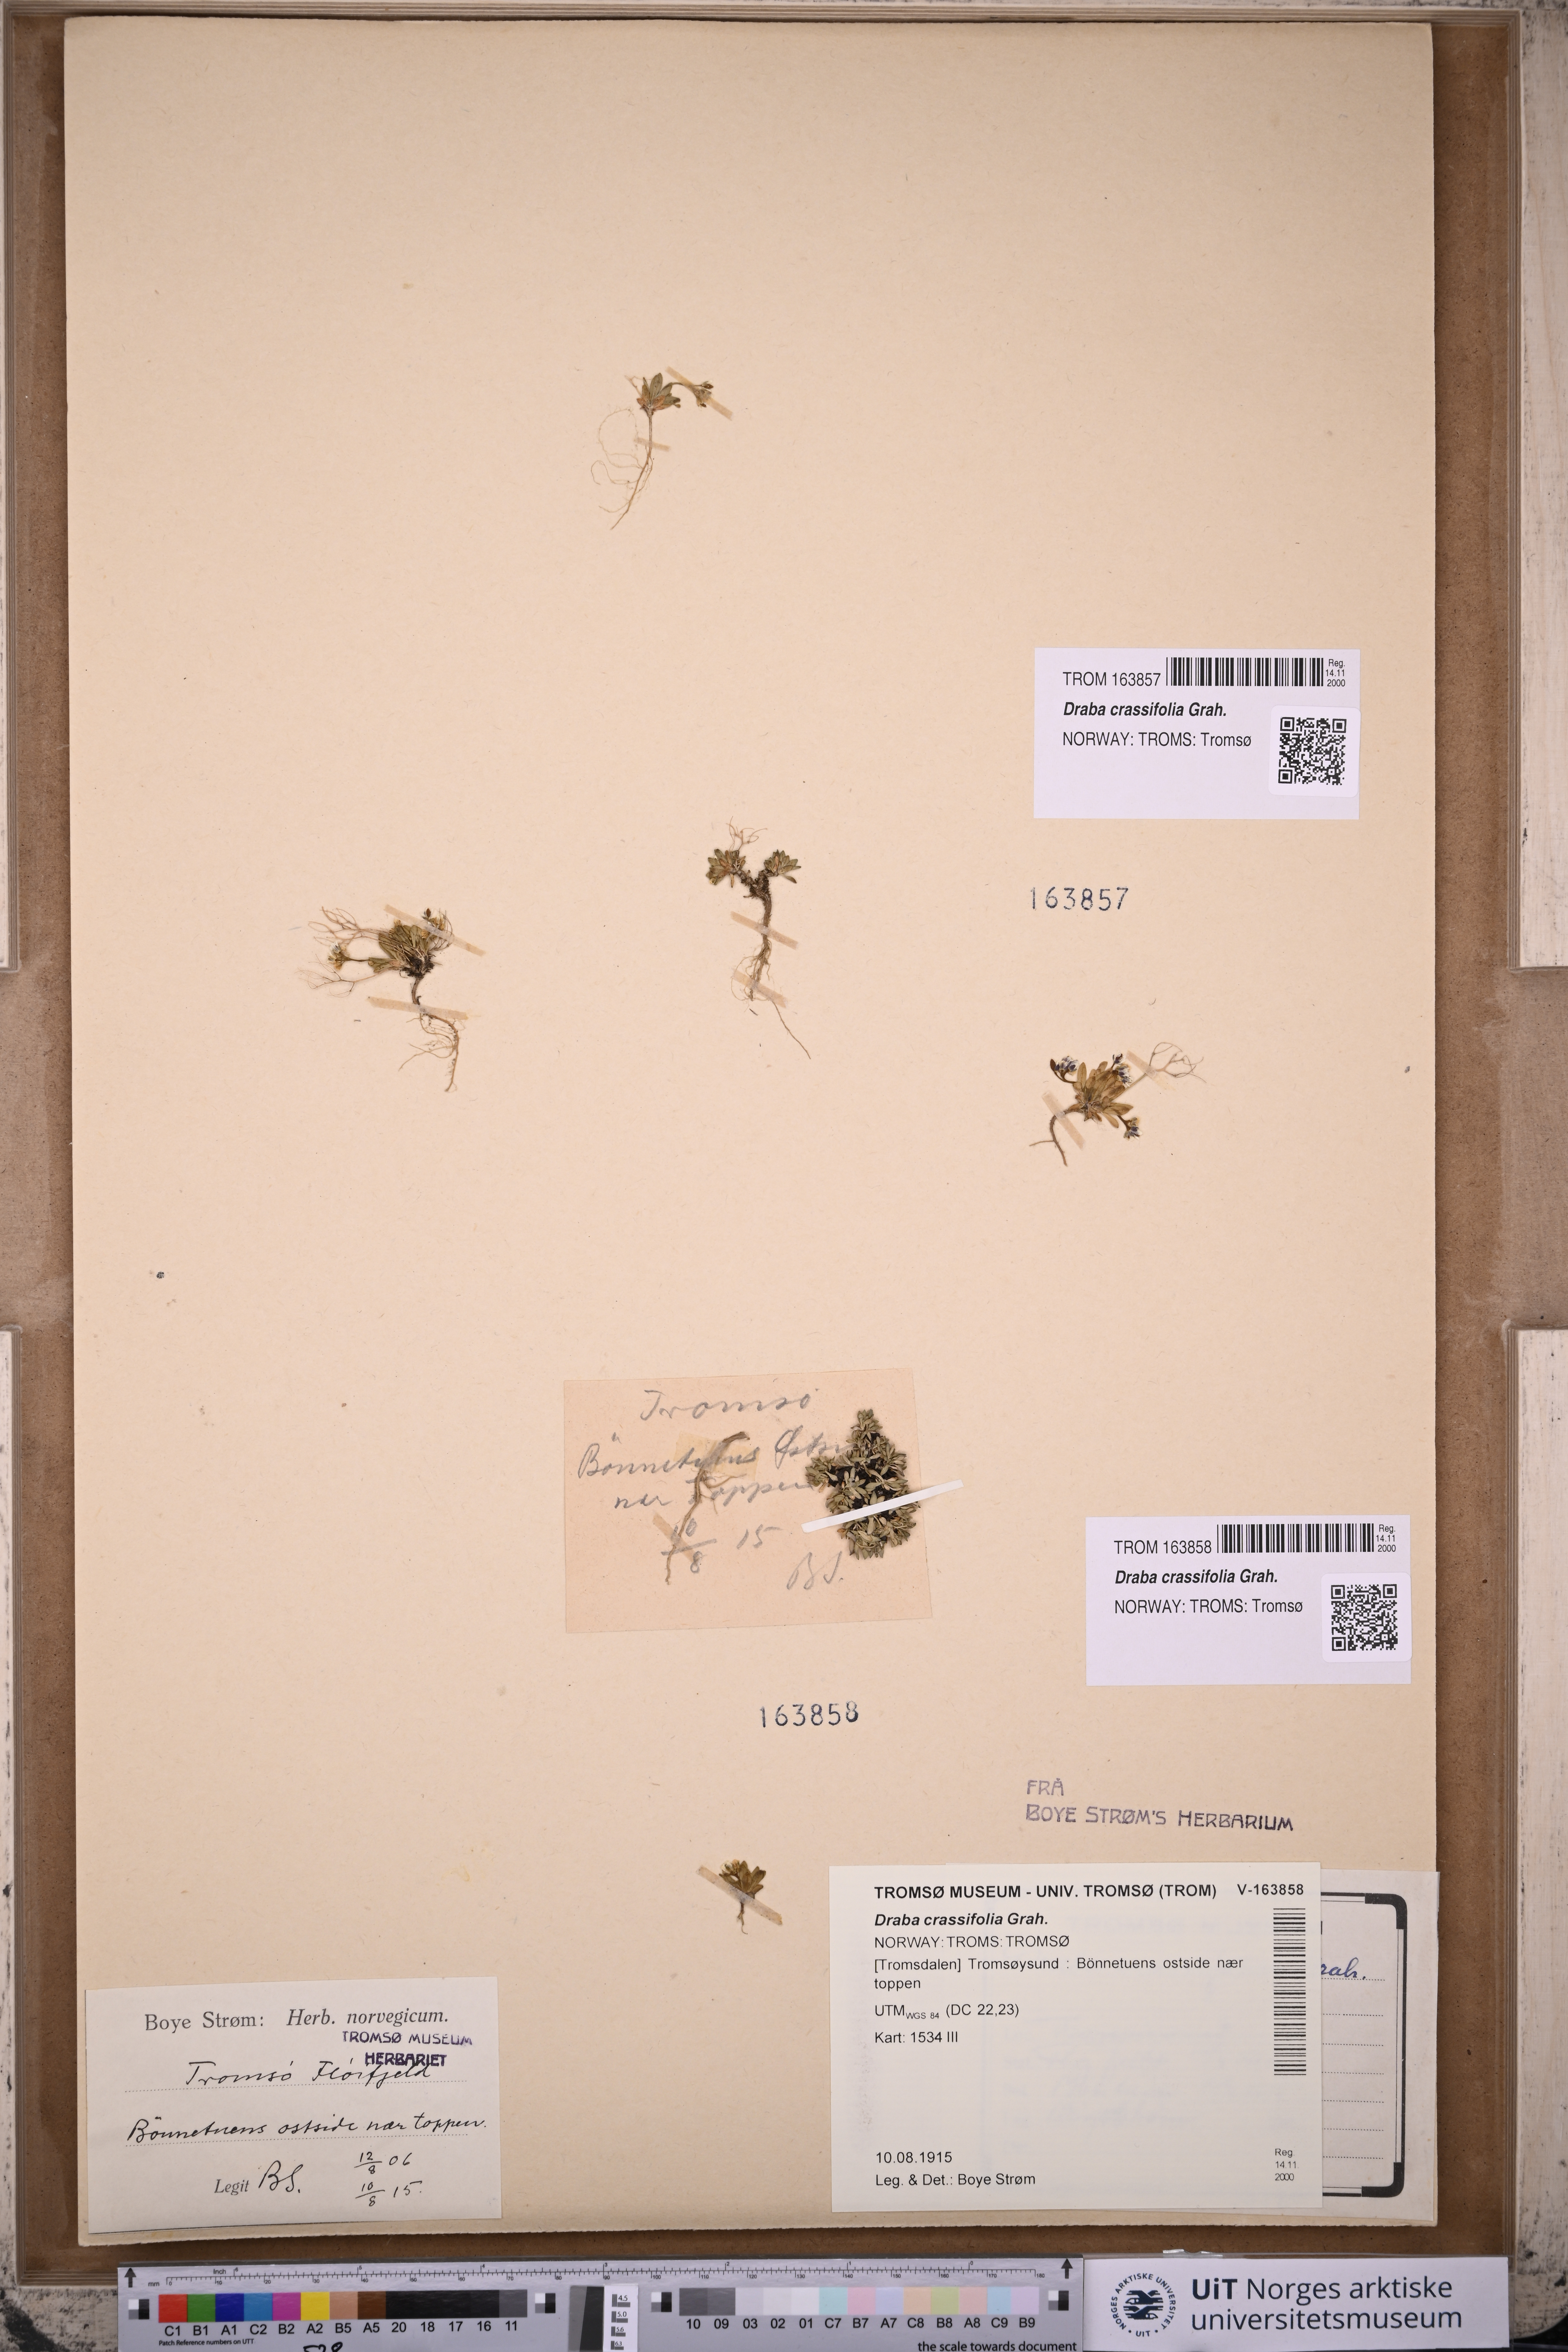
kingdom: Plantae
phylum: Tracheophyta
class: Magnoliopsida
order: Brassicales
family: Brassicaceae
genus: Draba
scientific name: Draba crassifolia
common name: Rocky mountain draba
